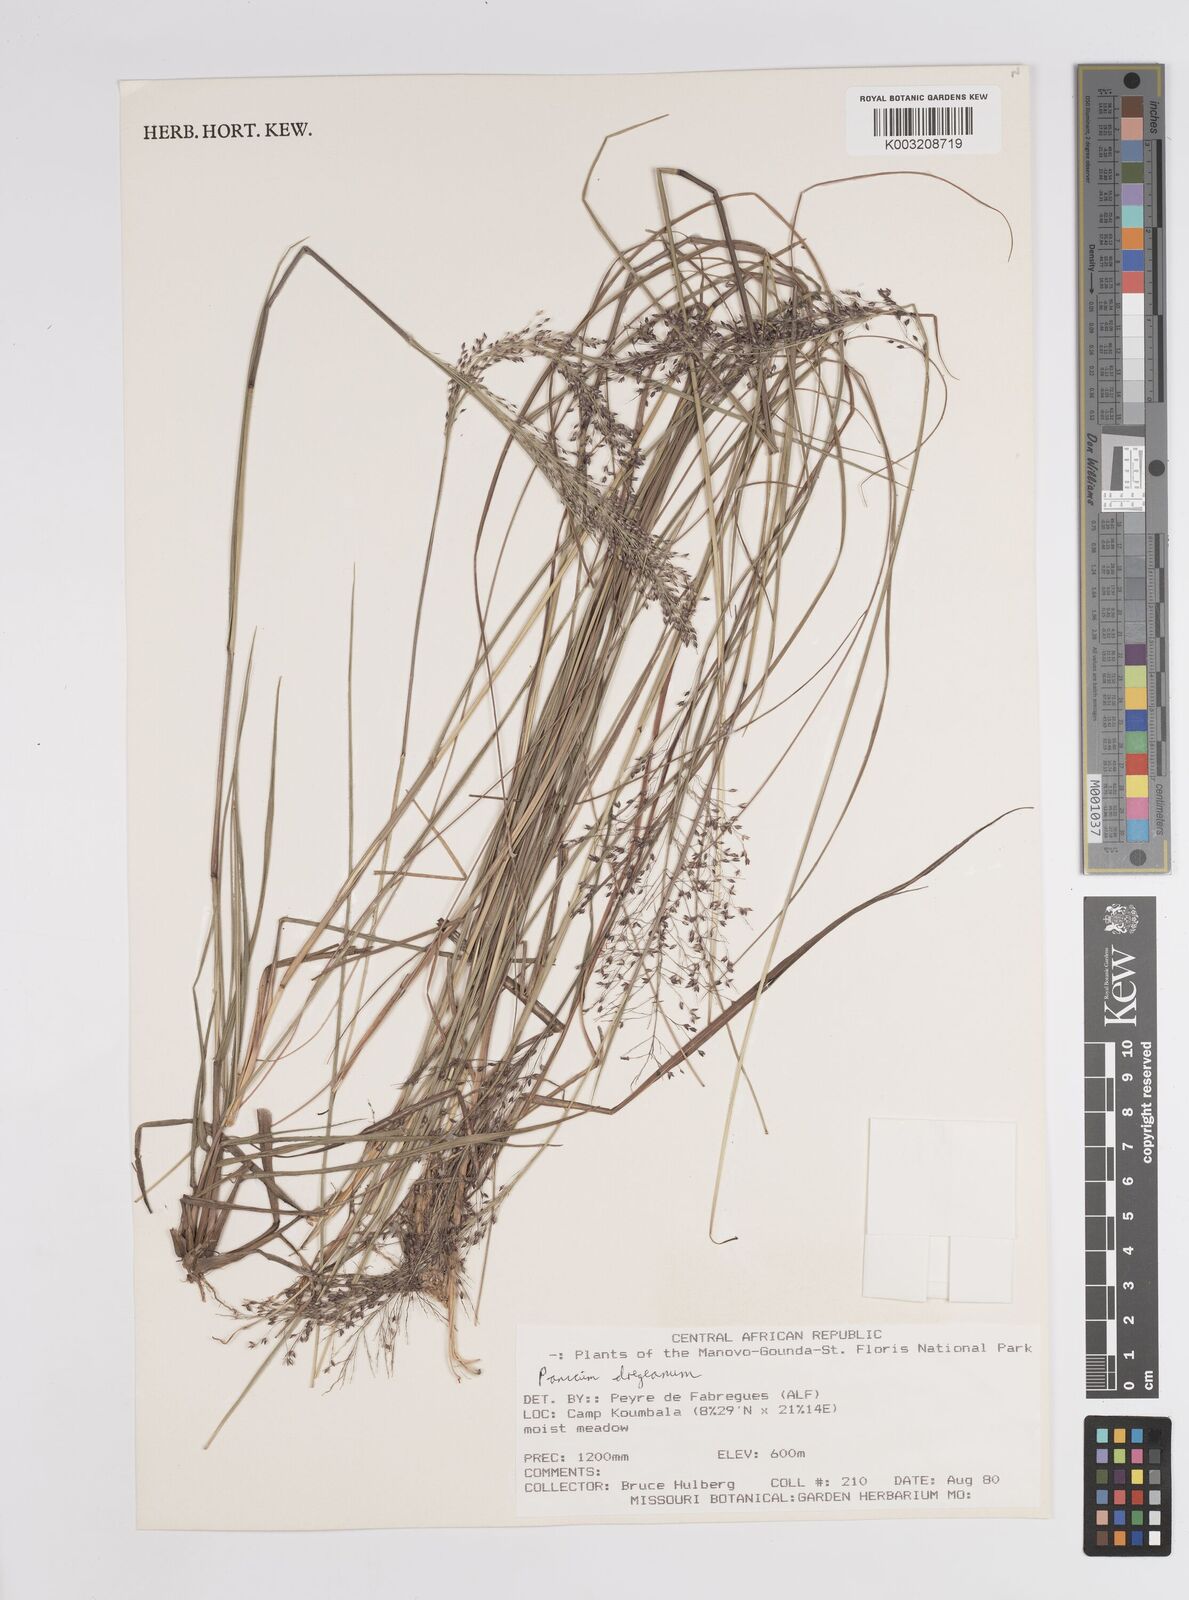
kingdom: Plantae
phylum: Tracheophyta
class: Liliopsida
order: Poales
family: Poaceae
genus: Panicum
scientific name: Panicum dregeanum
